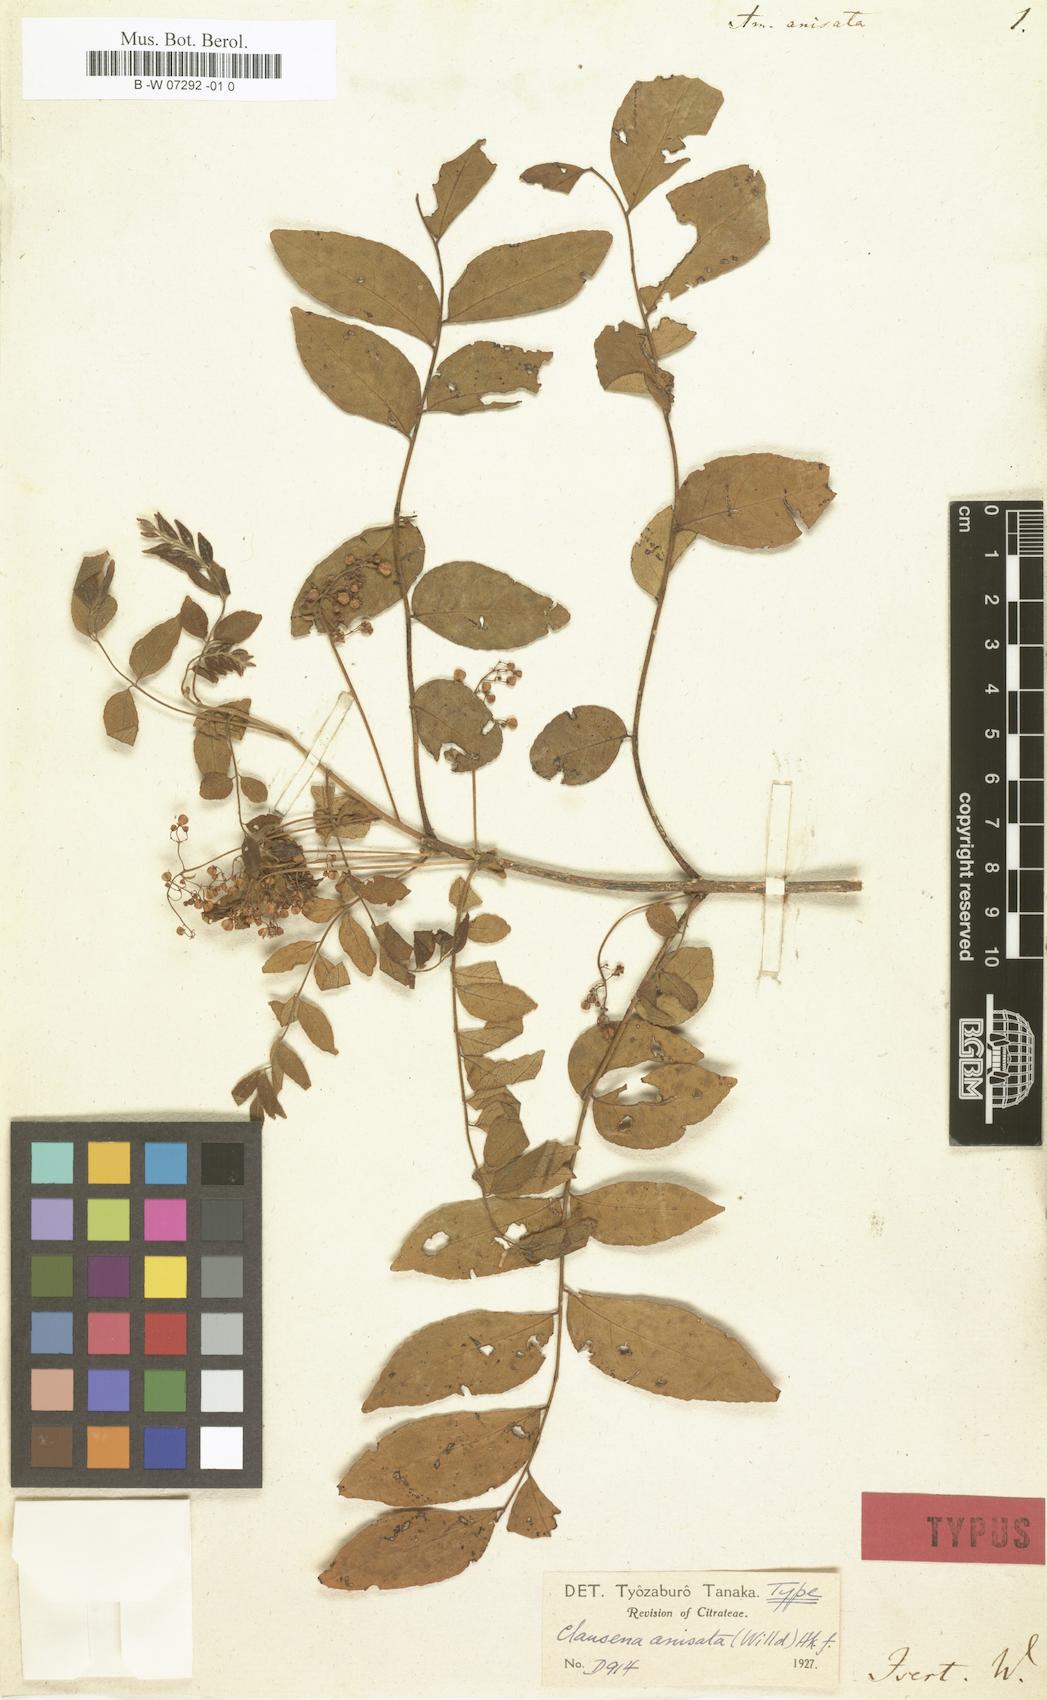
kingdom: Plantae
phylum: Tracheophyta
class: Magnoliopsida
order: Sapindales
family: Rutaceae
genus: Clausena
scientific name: Clausena anisata
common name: Horsewood
